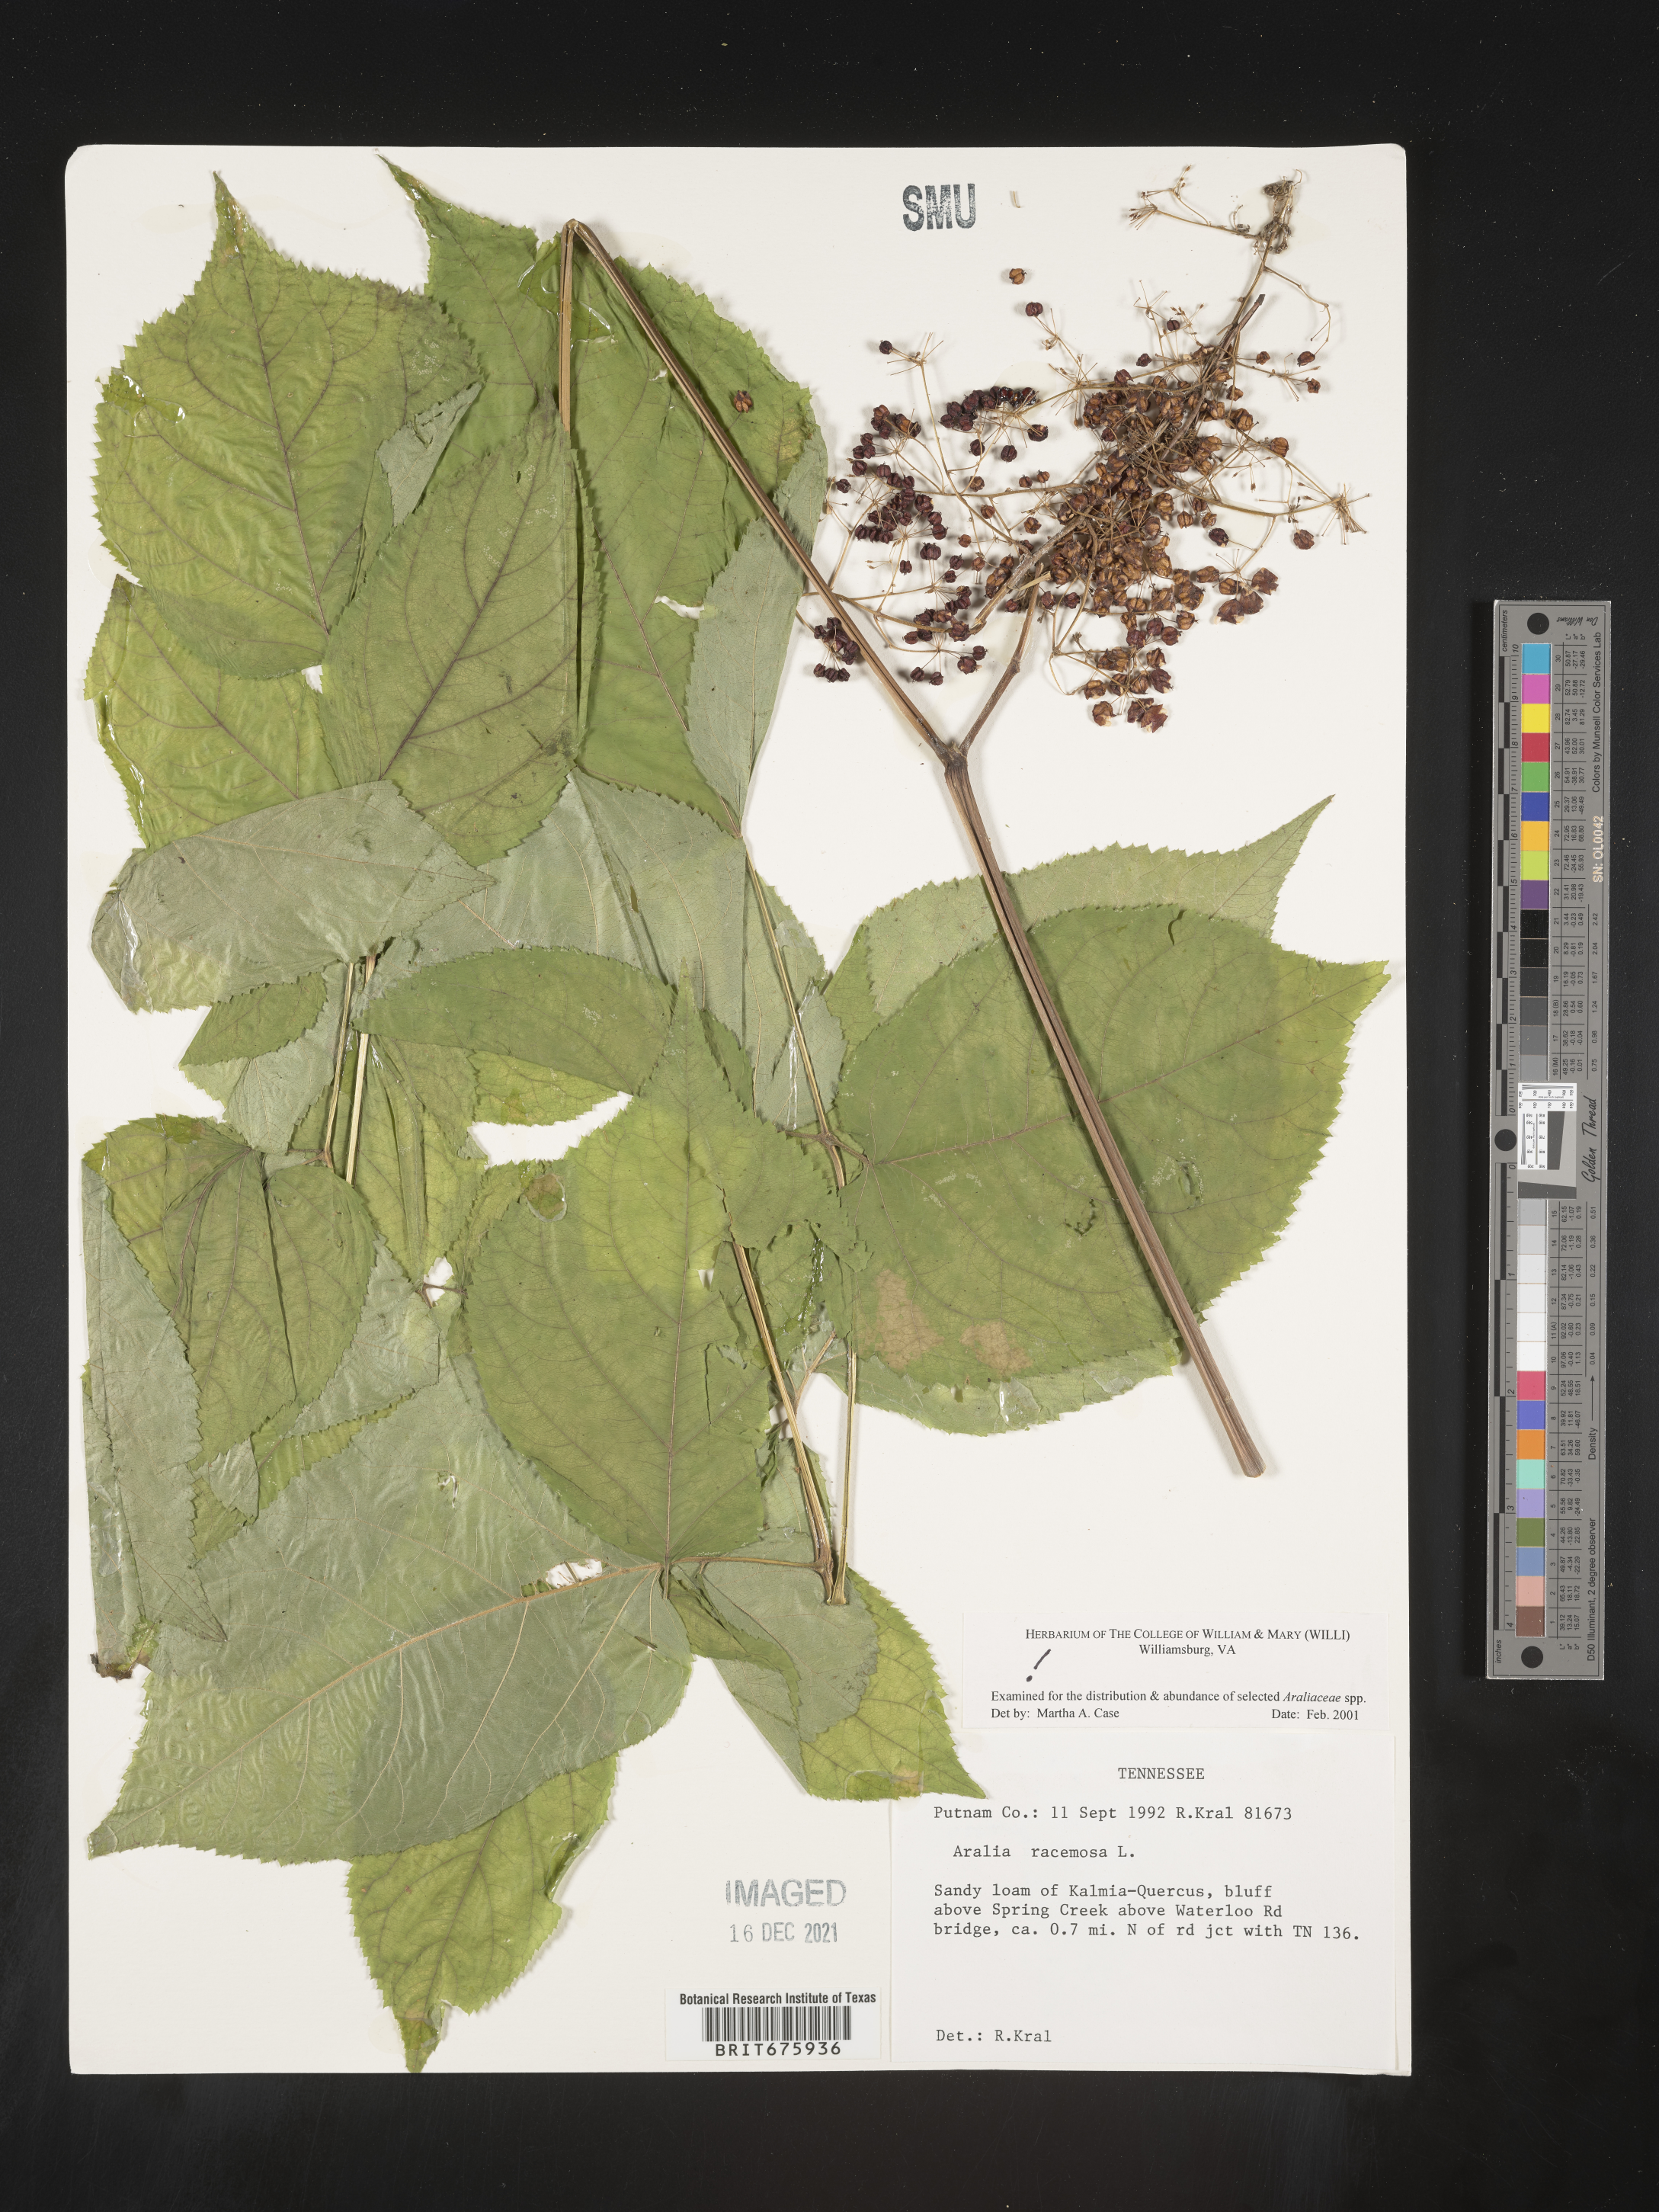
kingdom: Plantae
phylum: Tracheophyta
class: Magnoliopsida
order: Apiales
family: Araliaceae
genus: Aralia
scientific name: Aralia racemosa
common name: American-spikenard
